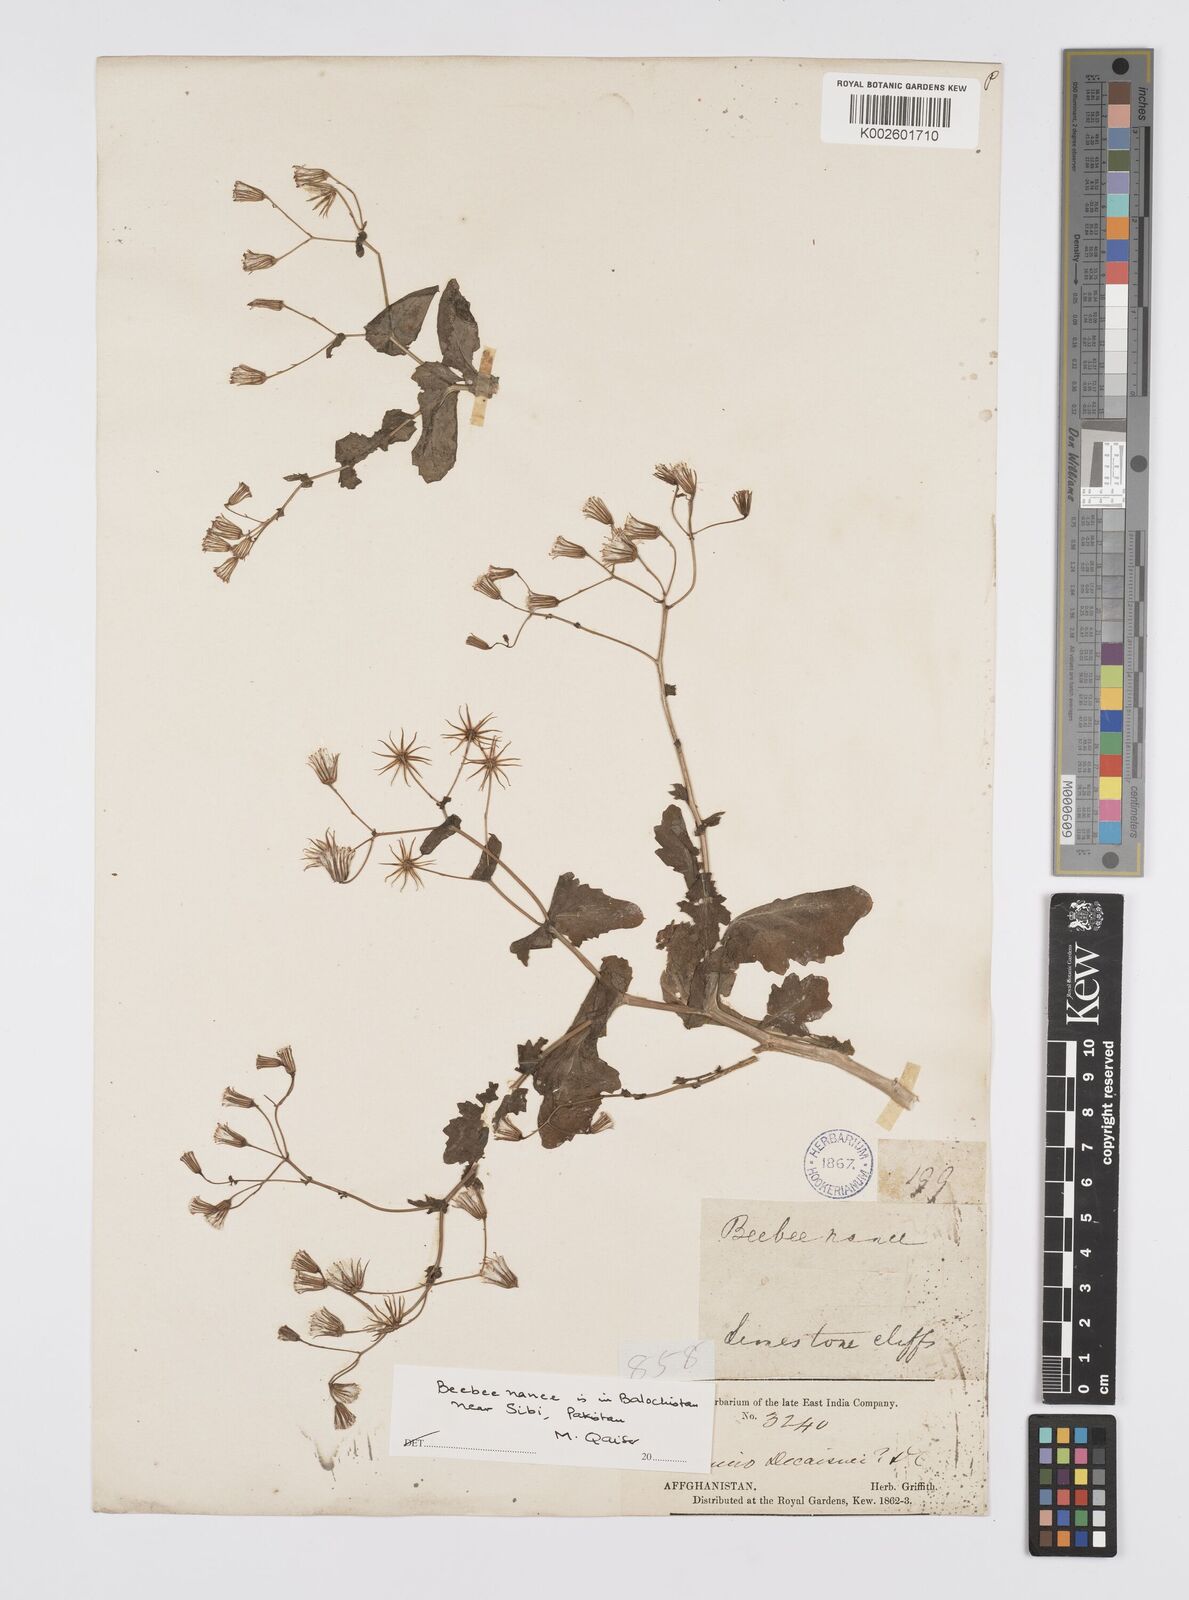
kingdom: Plantae
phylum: Tracheophyta
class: Magnoliopsida
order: Asterales
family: Asteraceae
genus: Senecio
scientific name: Senecio breviflorus
